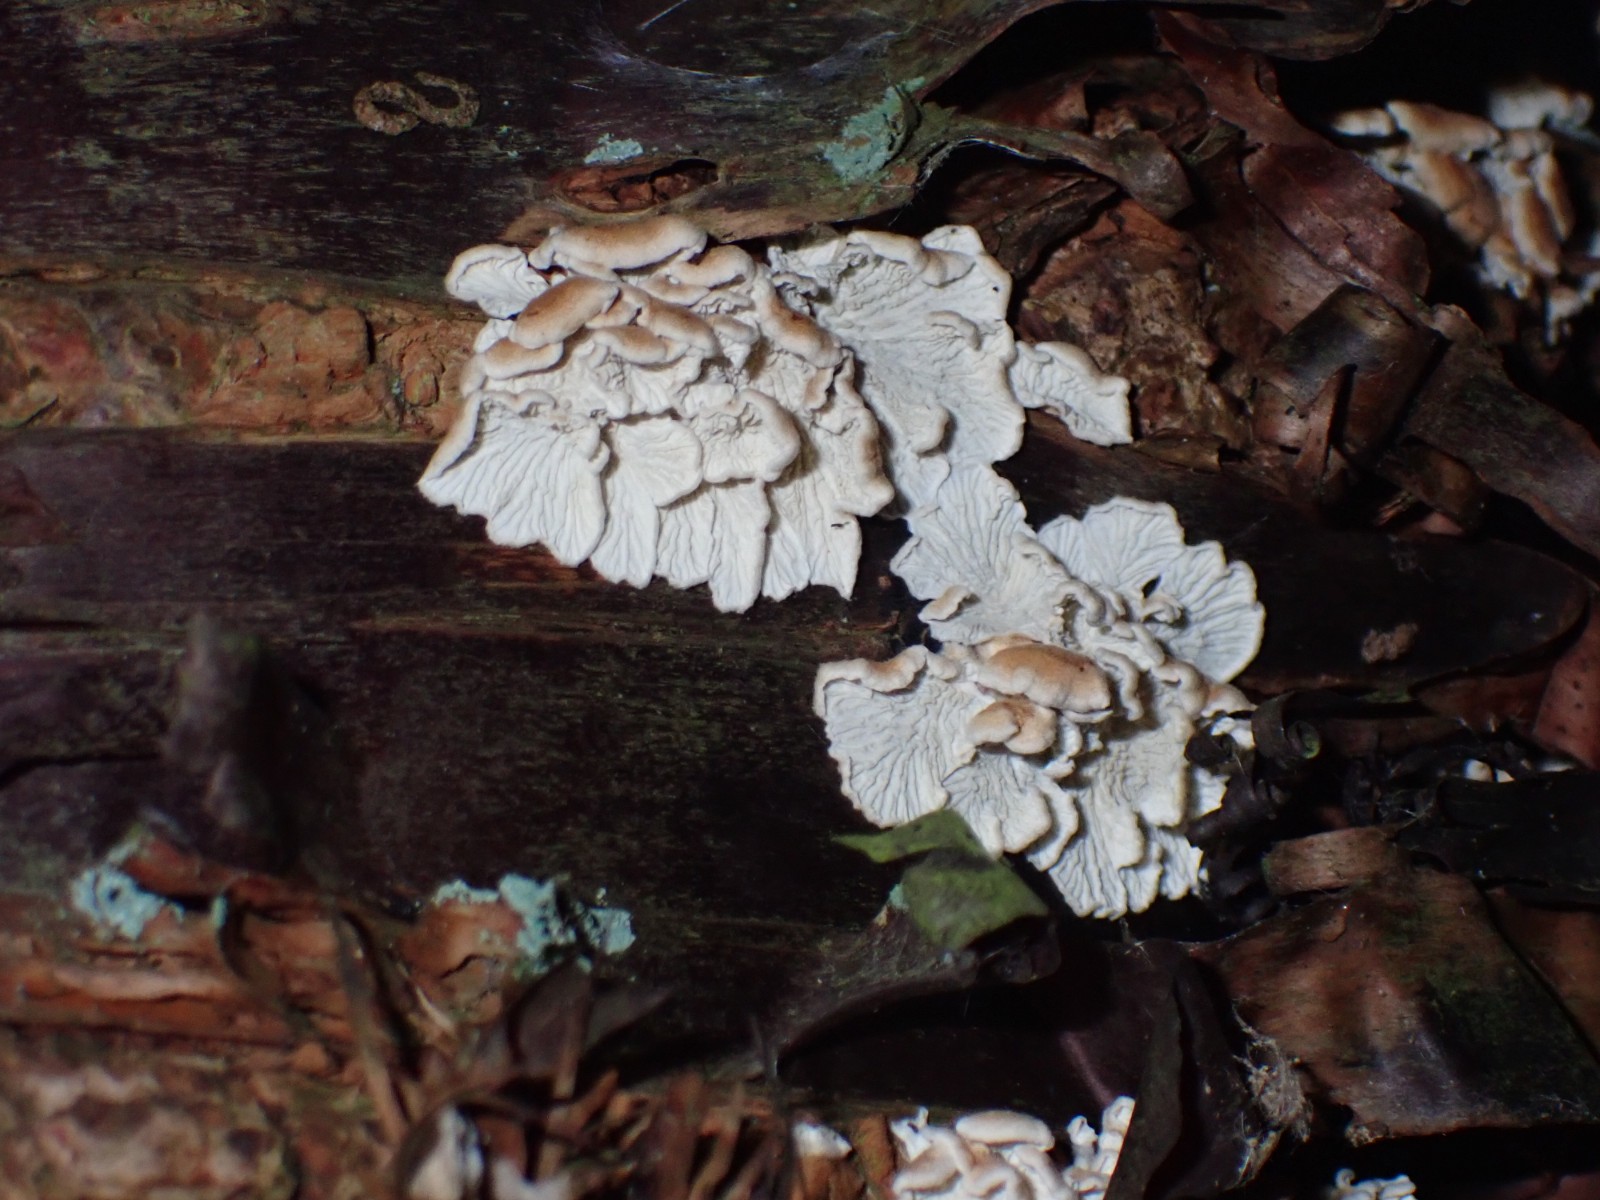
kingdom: Fungi
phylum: Basidiomycota
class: Agaricomycetes
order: Amylocorticiales
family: Amylocorticiaceae
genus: Plicaturopsis
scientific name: Plicaturopsis crispa
